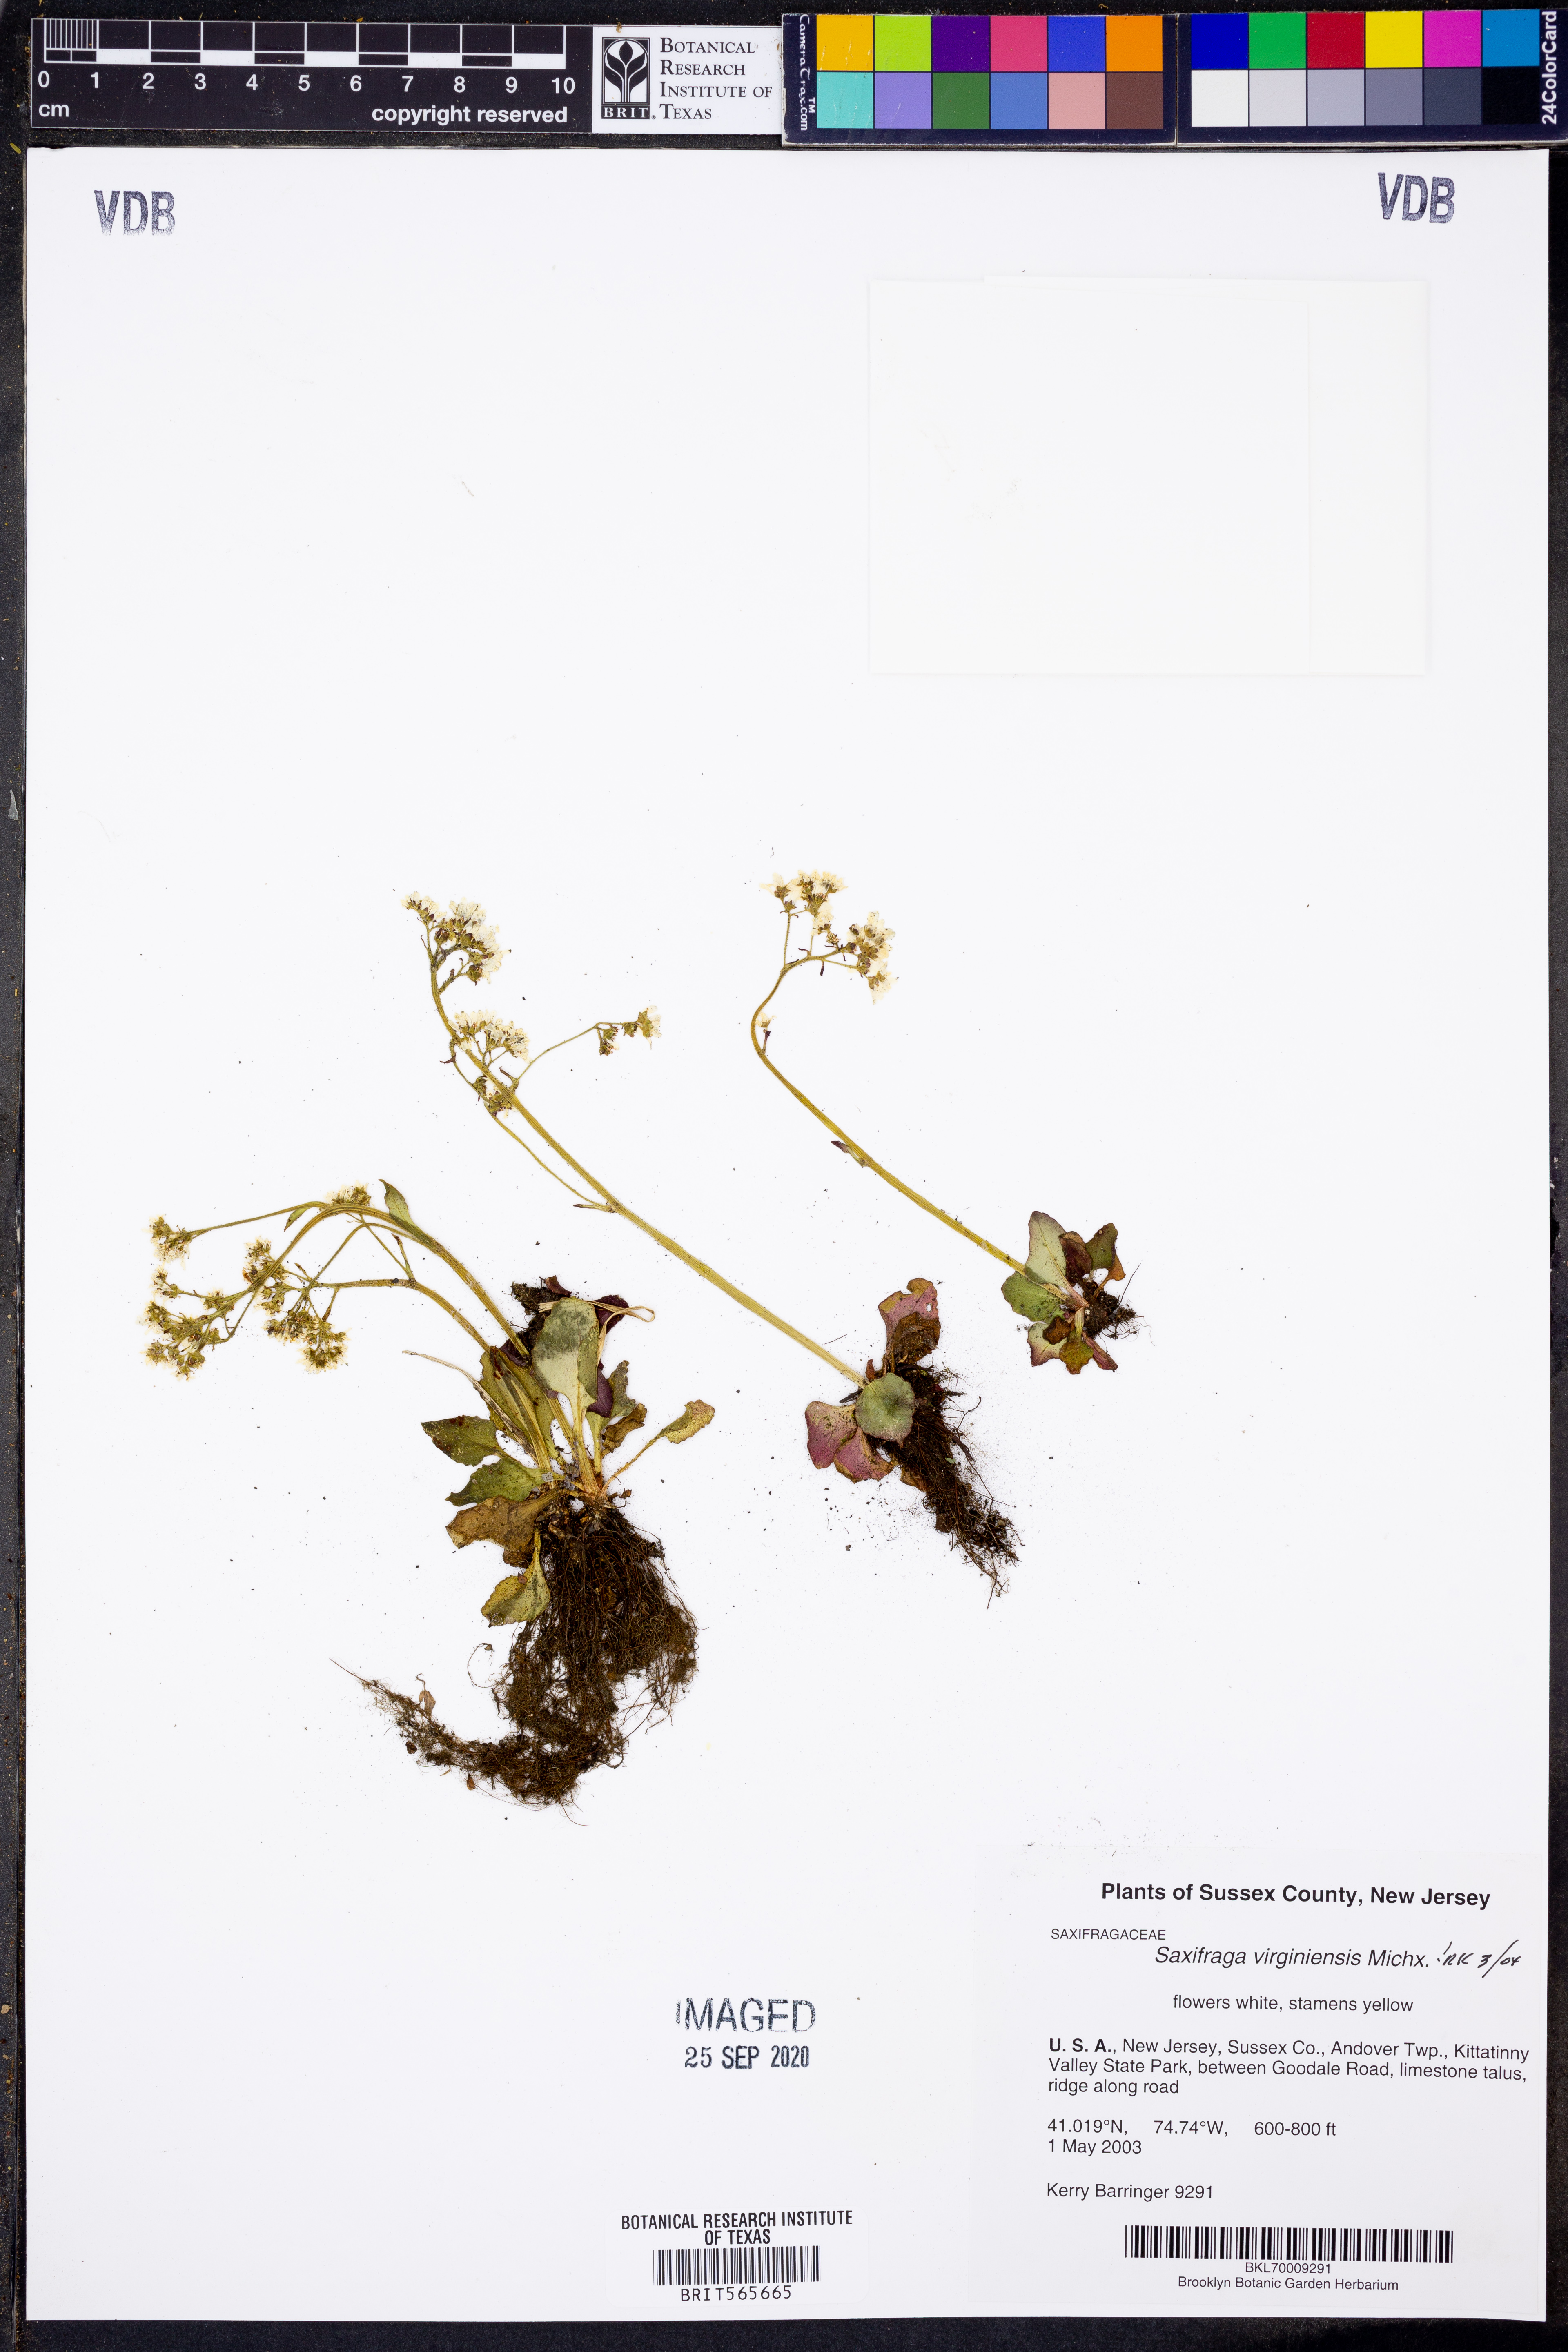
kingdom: Plantae
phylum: Tracheophyta
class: Magnoliopsida
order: Saxifragales
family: Saxifragaceae
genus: Micranthes
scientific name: Micranthes virginiensis
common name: Early saxifrage
